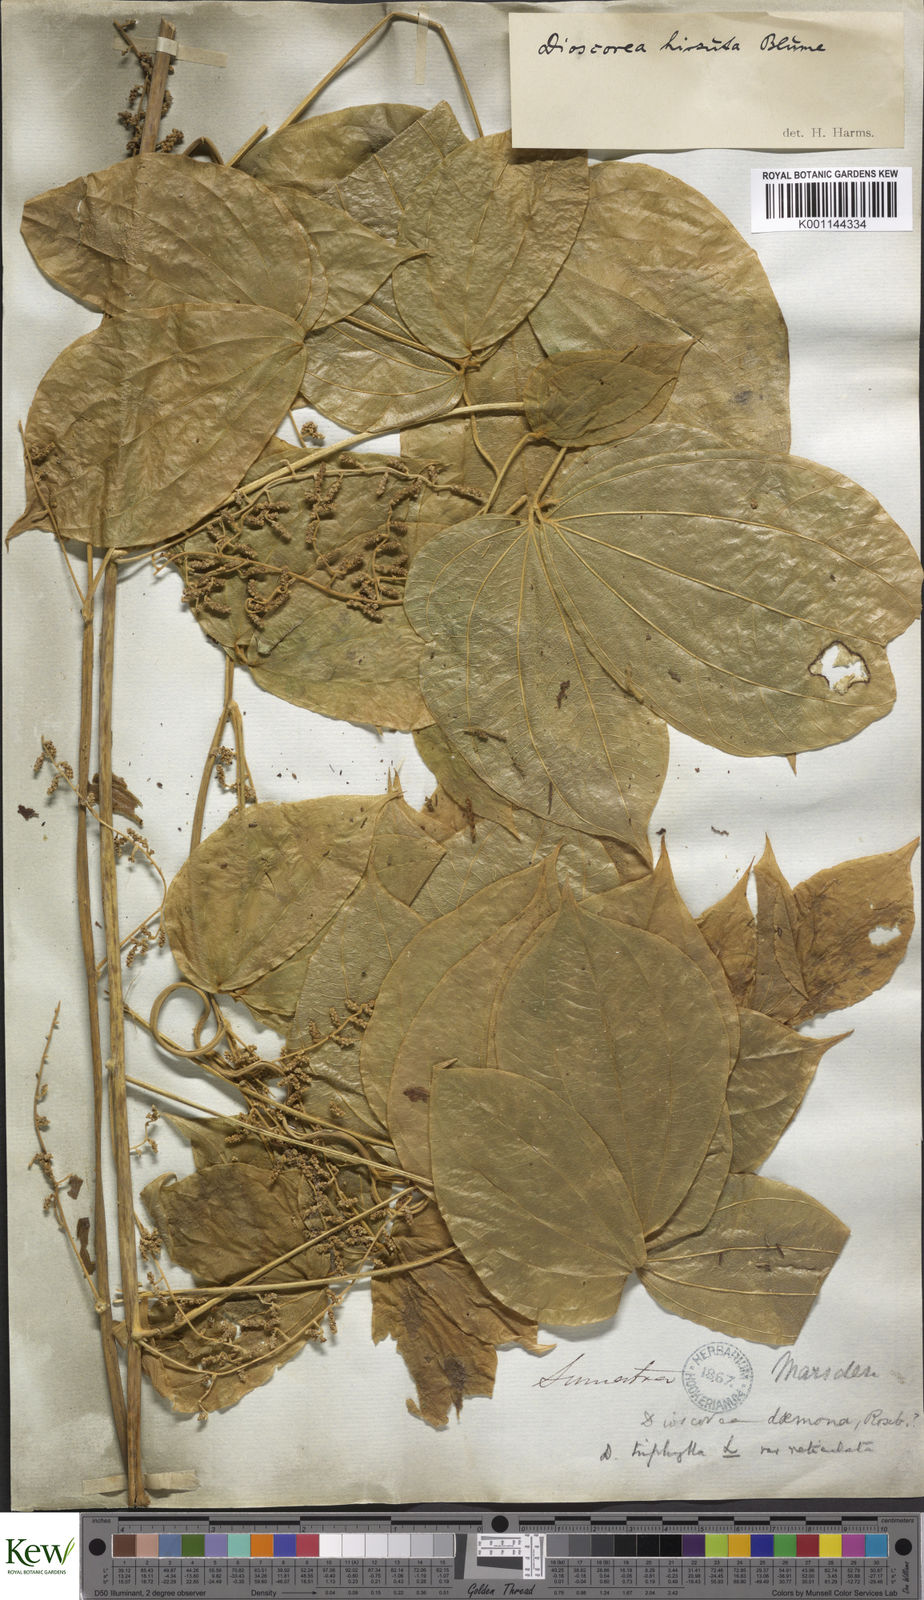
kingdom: Plantae
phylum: Tracheophyta
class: Liliopsida
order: Dioscoreales
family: Dioscoreaceae
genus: Dioscorea
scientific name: Dioscorea hispida
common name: Asiatic bitter yam
